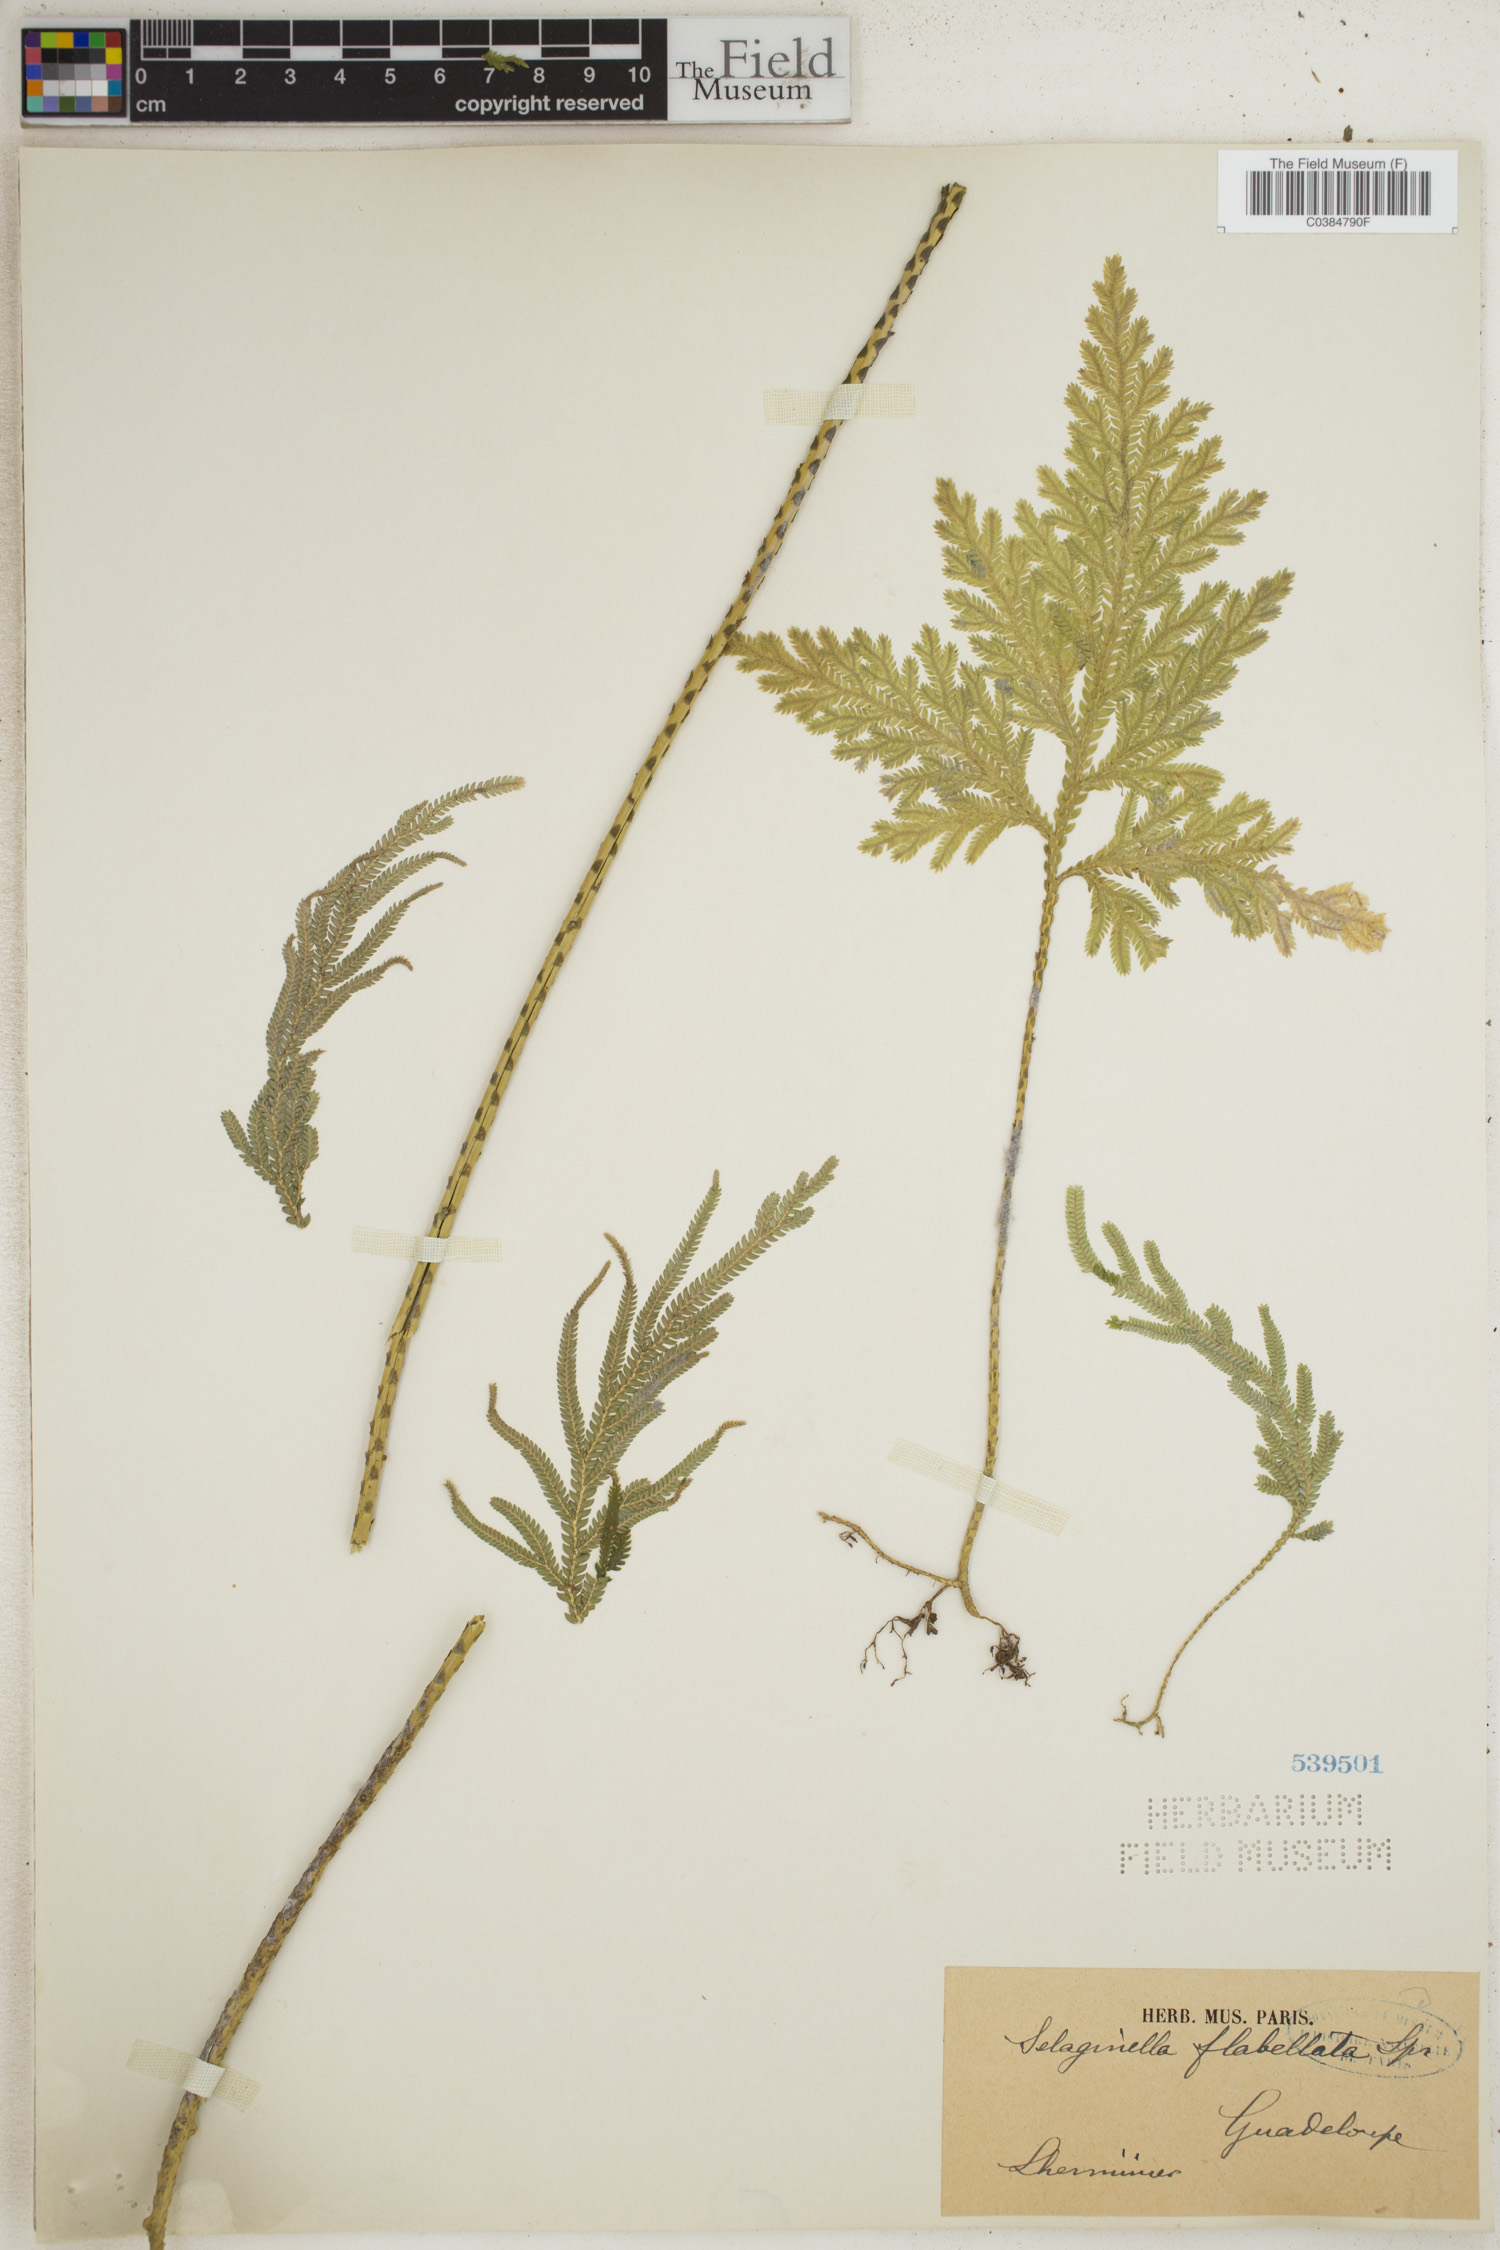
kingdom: Plantae
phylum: Tracheophyta
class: Lycopodiopsida
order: Selaginellales
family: Selaginellaceae
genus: Selaginella
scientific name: Selaginella flabellata
